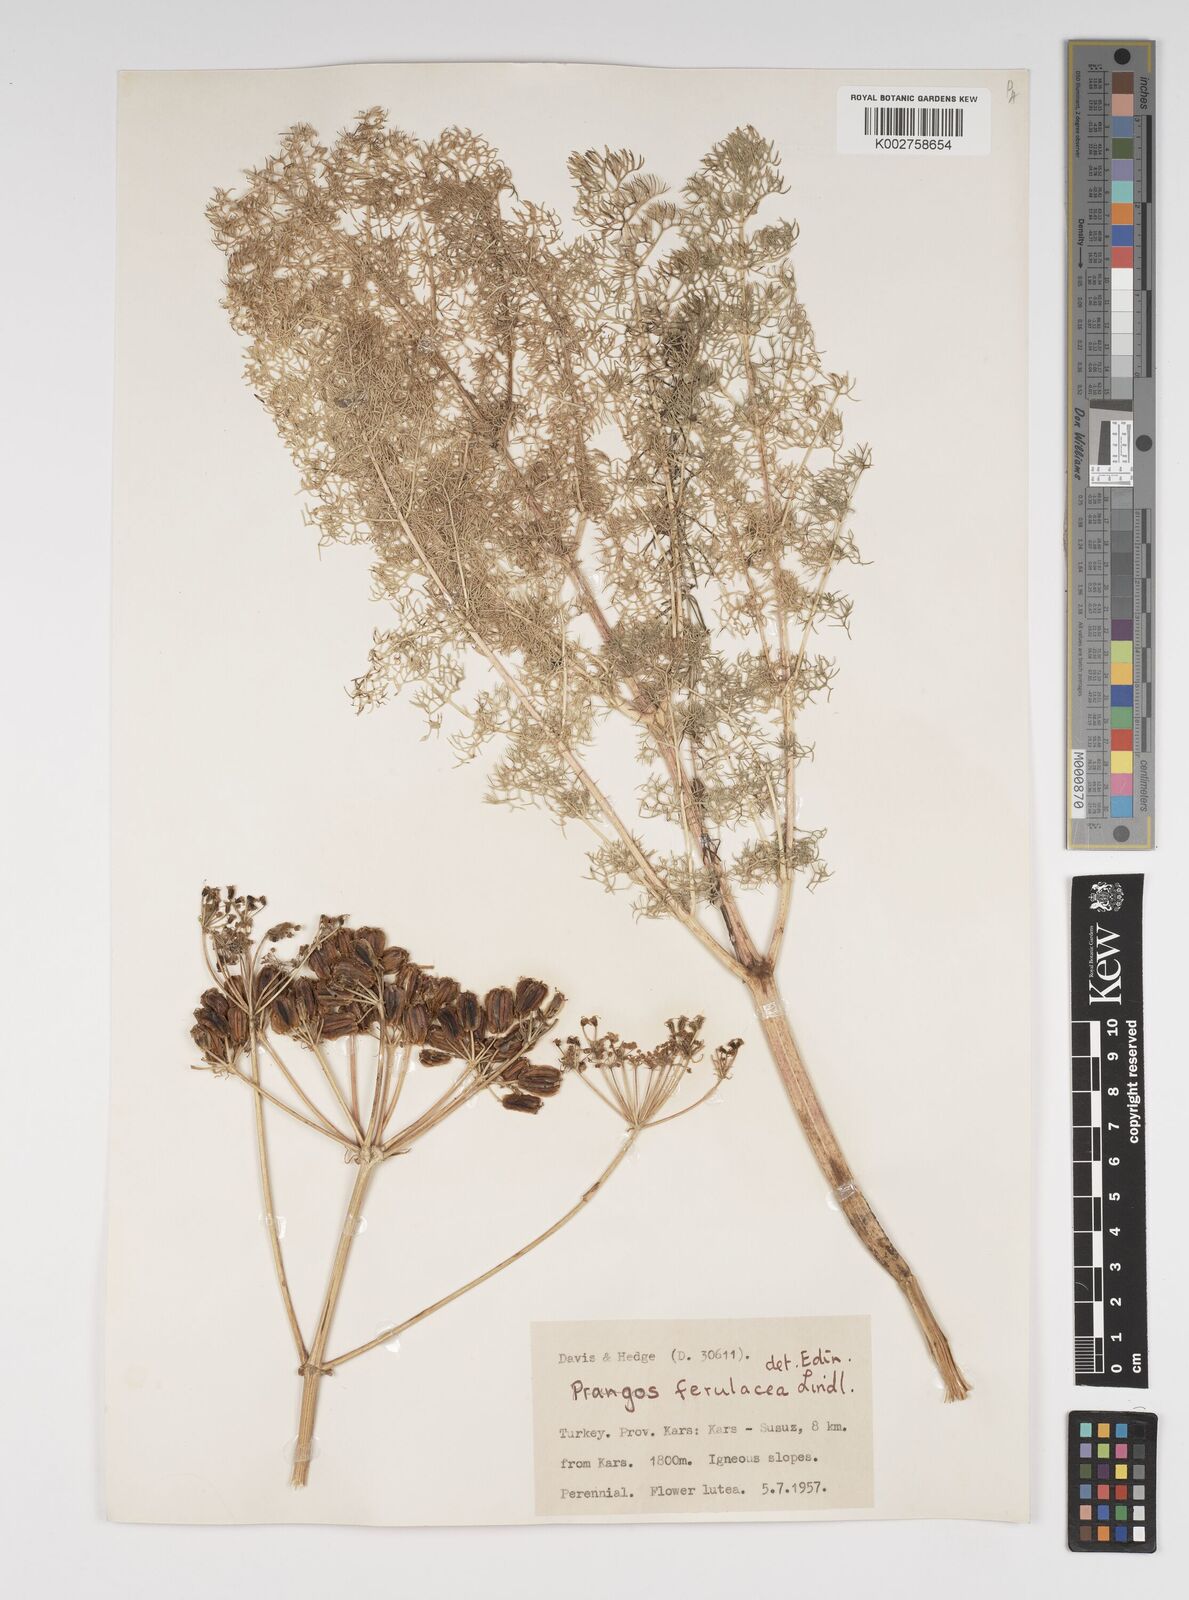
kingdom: Plantae
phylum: Tracheophyta
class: Magnoliopsida
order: Apiales
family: Apiaceae
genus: Prangos
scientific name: Prangos ferulacea
